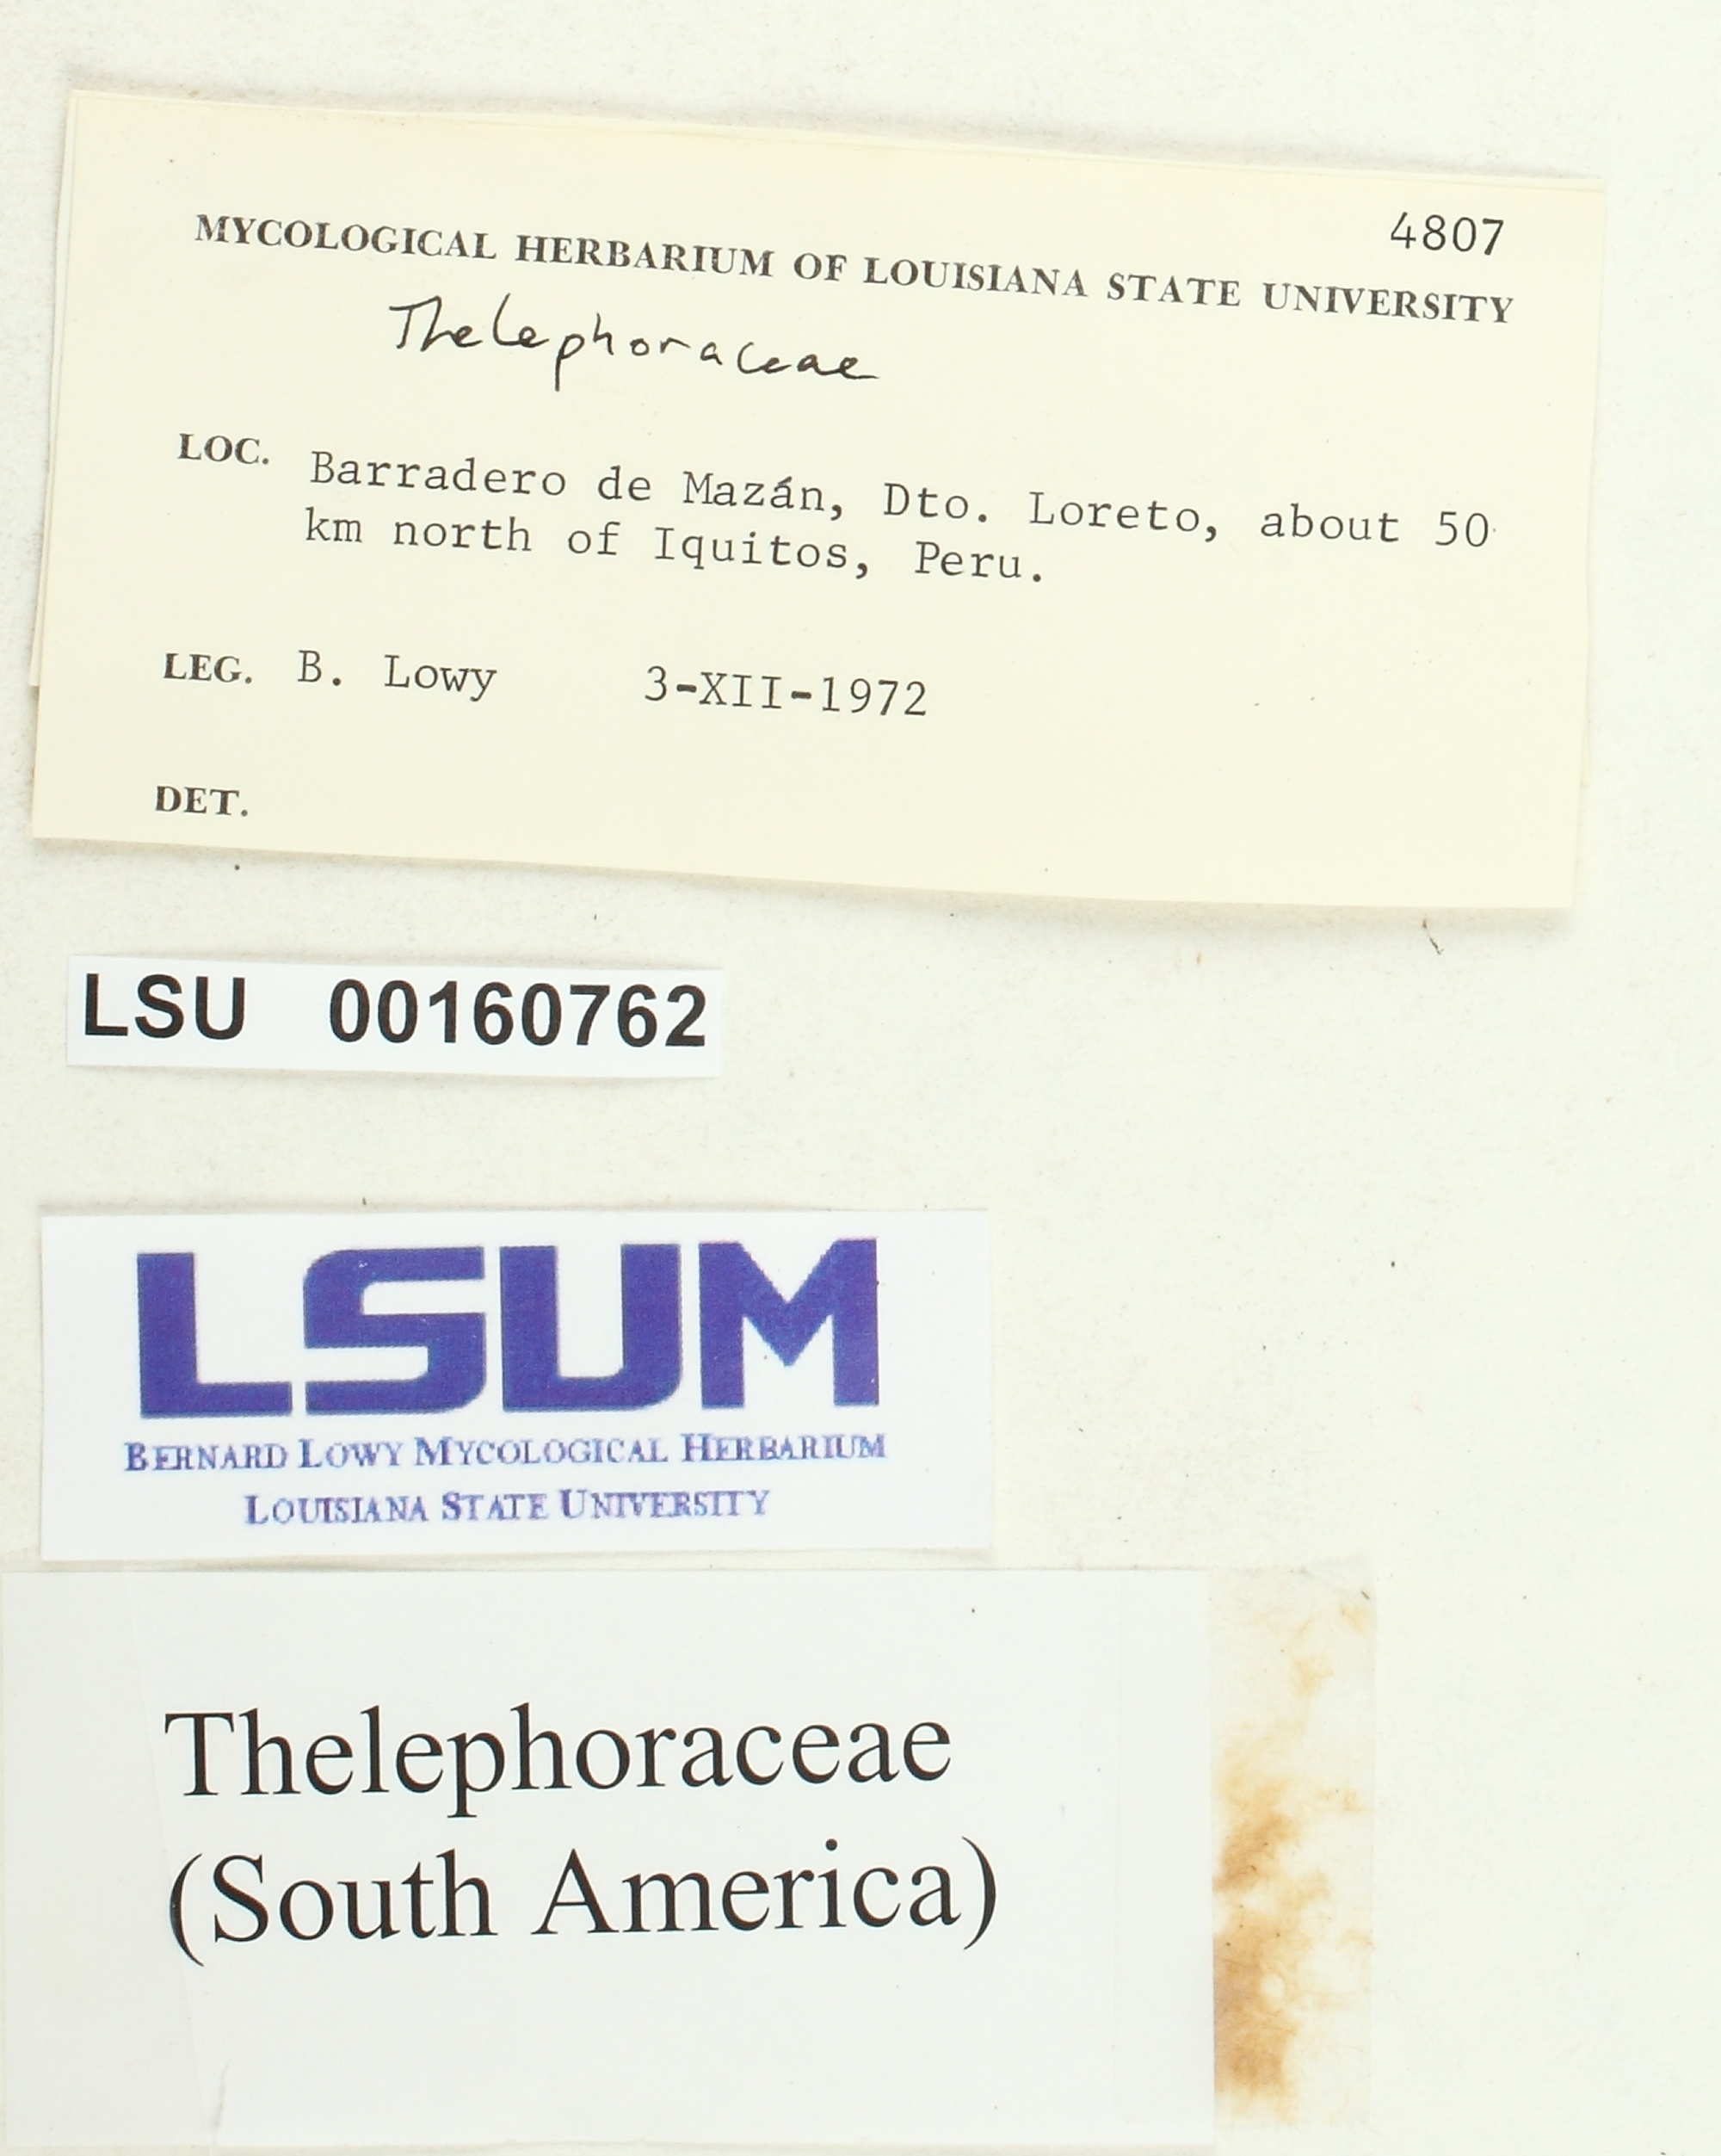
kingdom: Fungi
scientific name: Fungi
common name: Fungi
